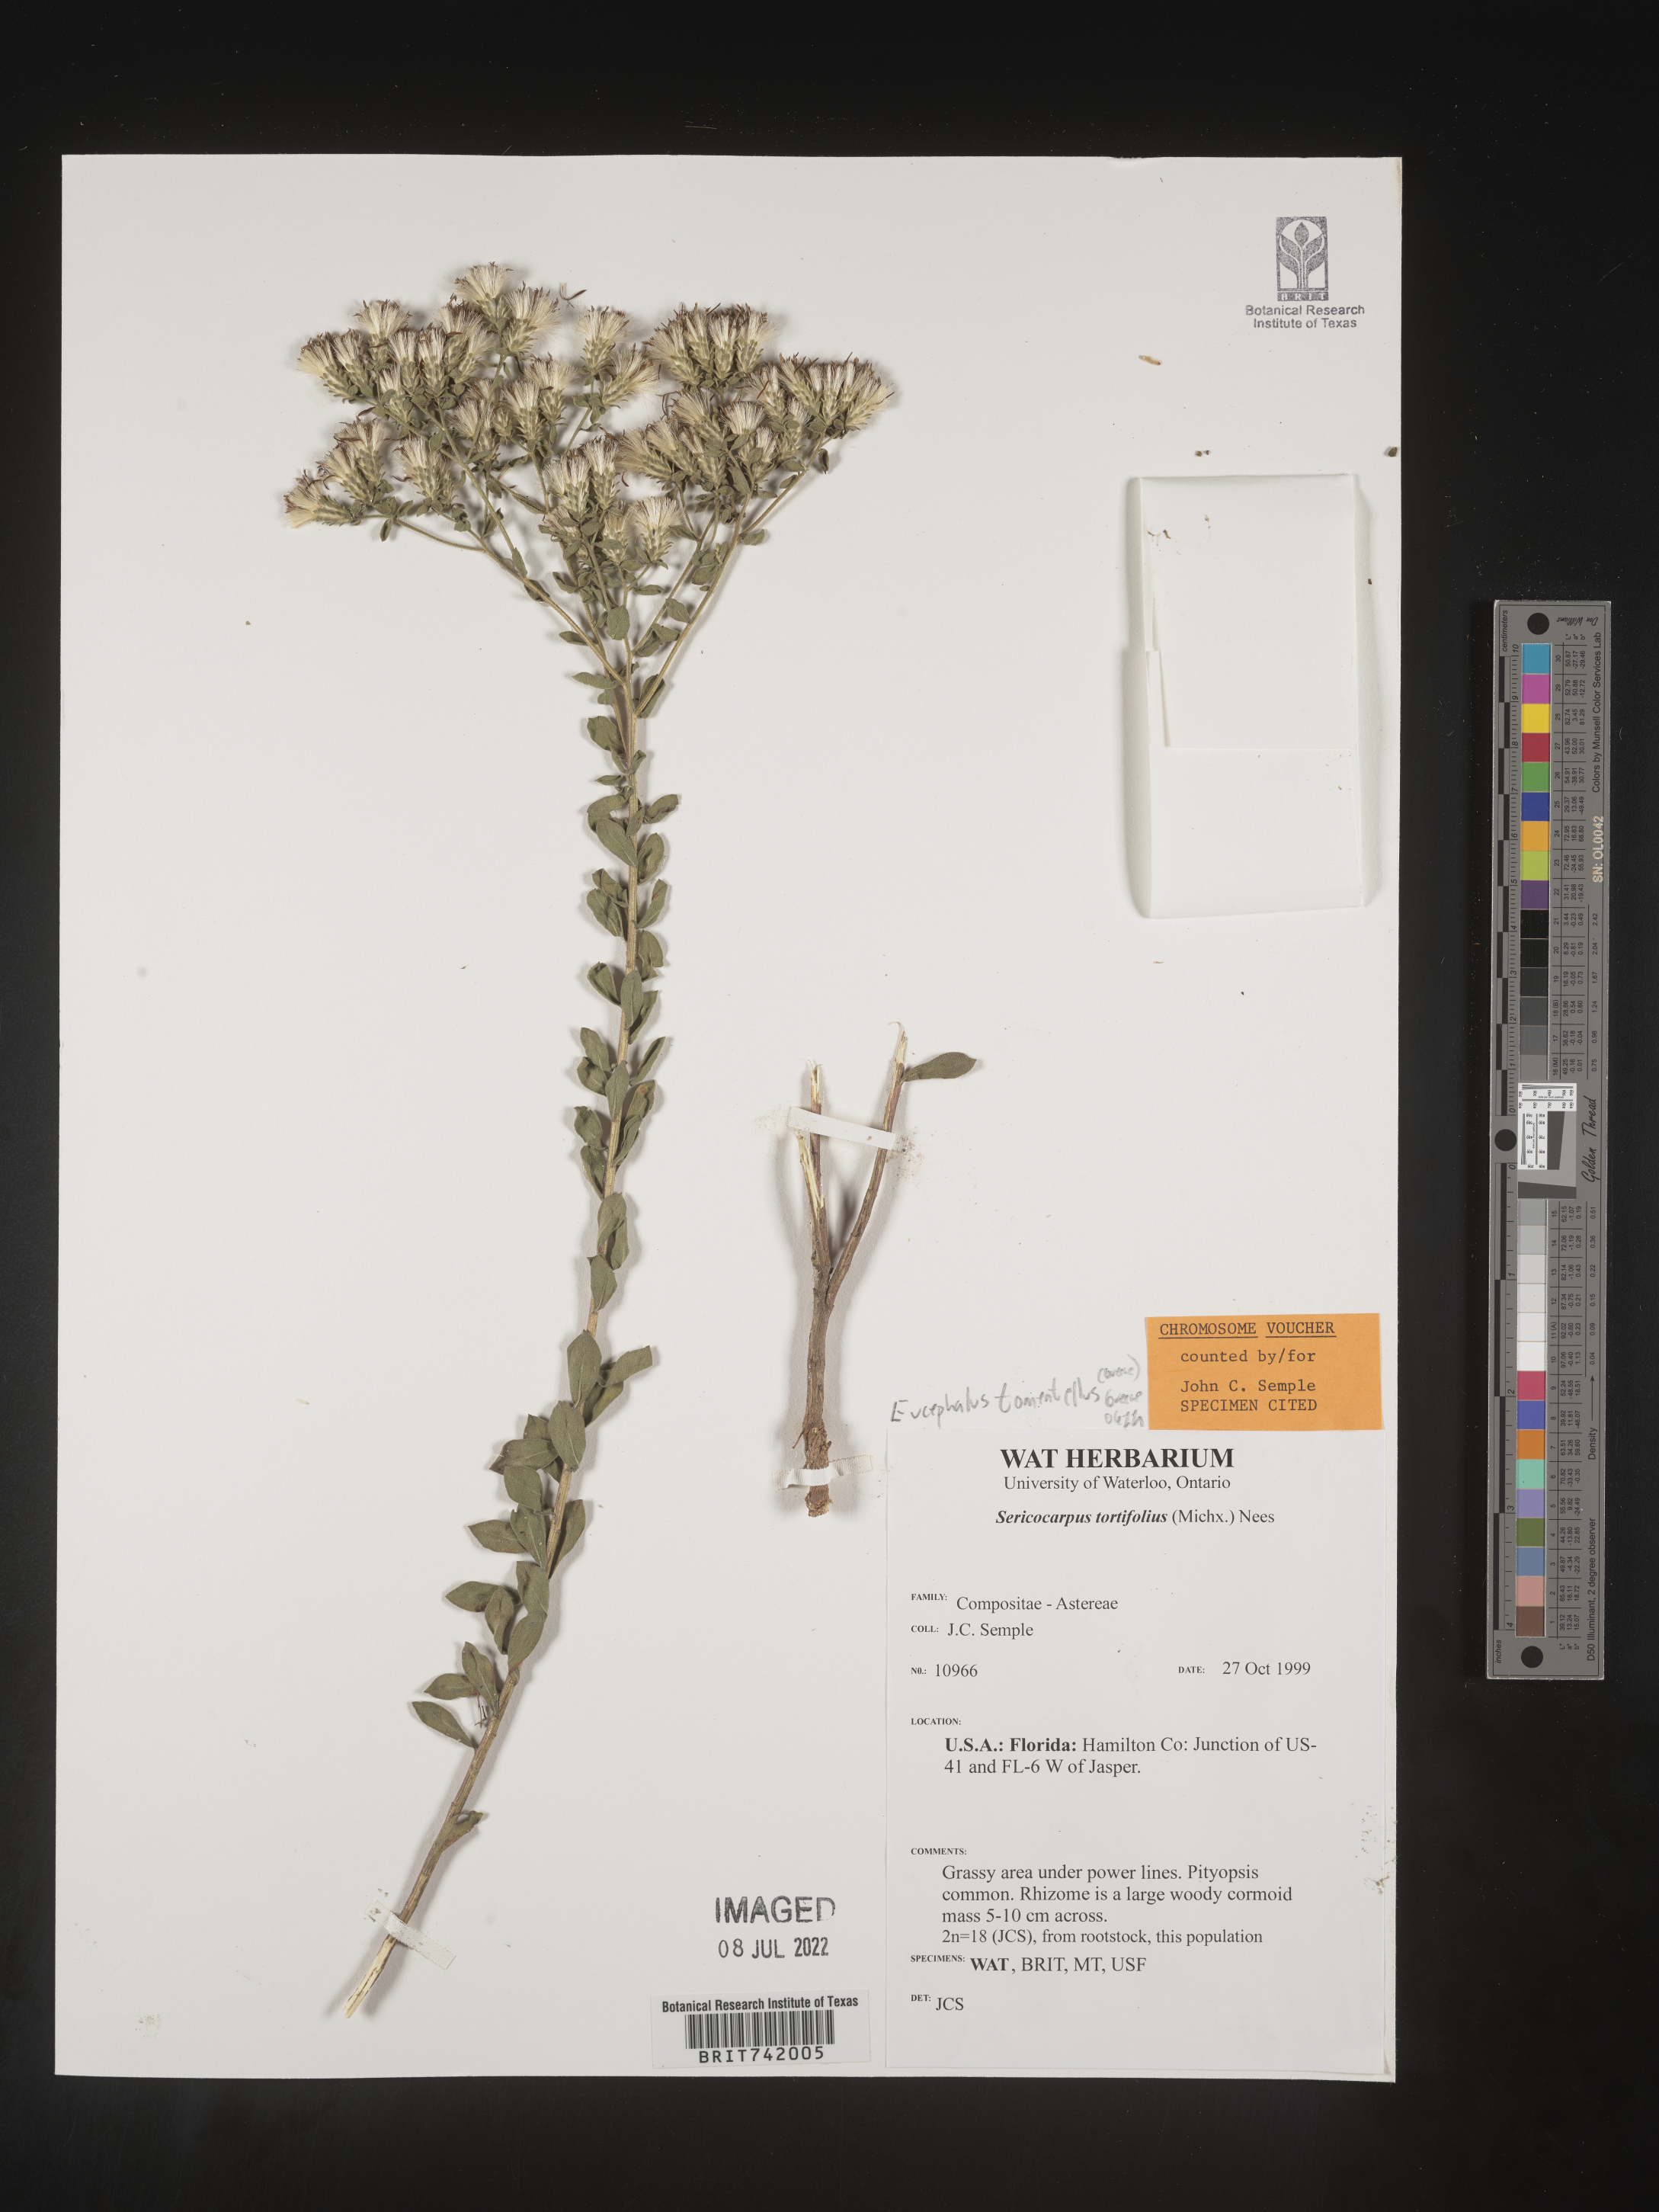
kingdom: Plantae
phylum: Tracheophyta
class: Magnoliopsida
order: Asterales
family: Asteraceae
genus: Sericocarpus
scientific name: Sericocarpus tortifolius
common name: Dixie aster
